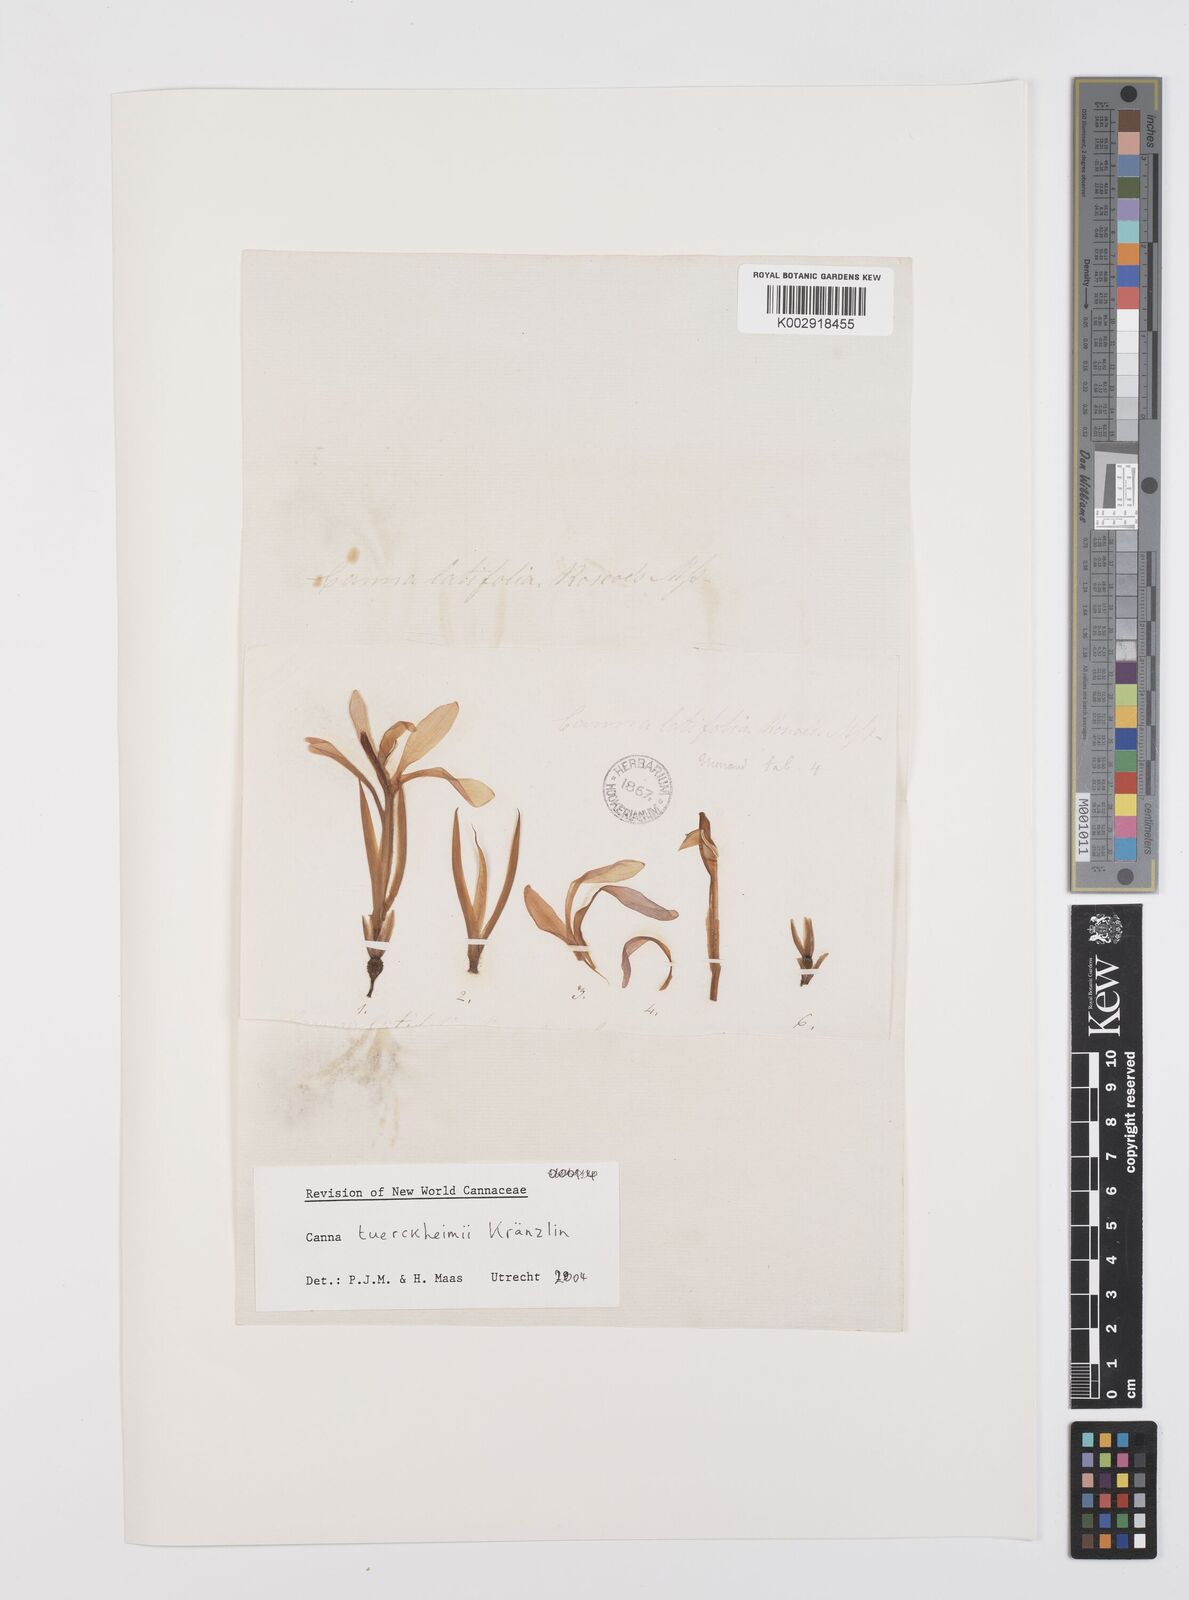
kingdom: Plantae
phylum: Tracheophyta
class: Liliopsida
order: Zingiberales
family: Cannaceae
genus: Canna
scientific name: Canna tuerckheimii
